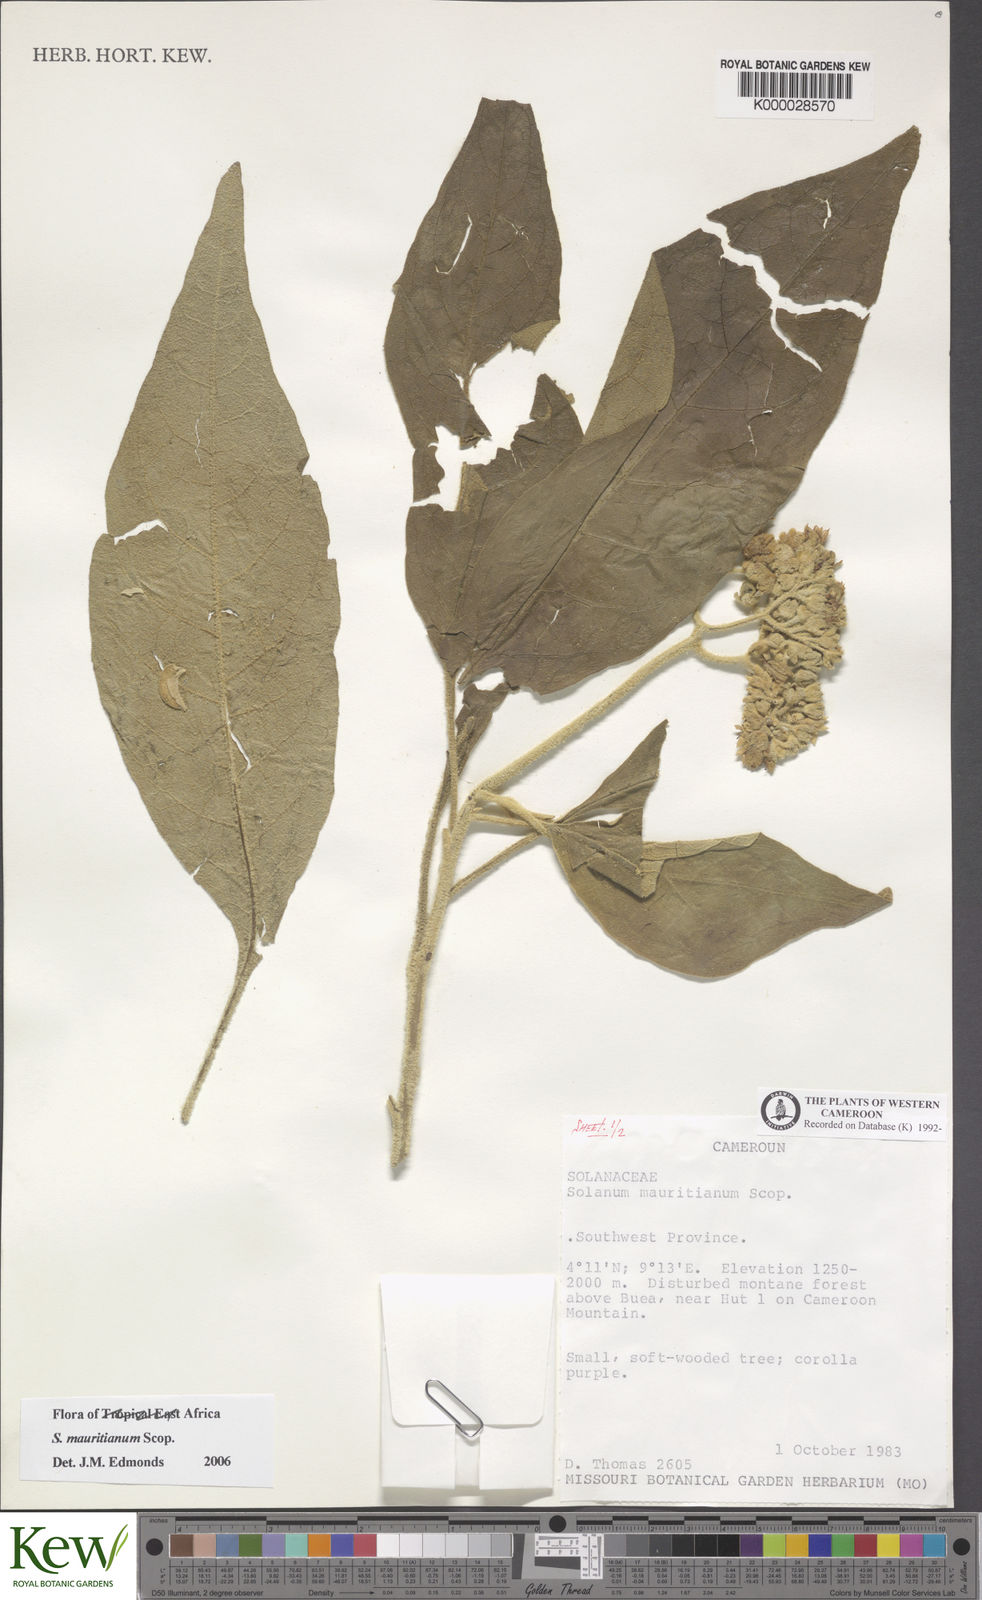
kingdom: Plantae
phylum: Tracheophyta
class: Magnoliopsida
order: Solanales
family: Solanaceae
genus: Solanum
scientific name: Solanum mauritianum
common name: Earleaf nightshade
